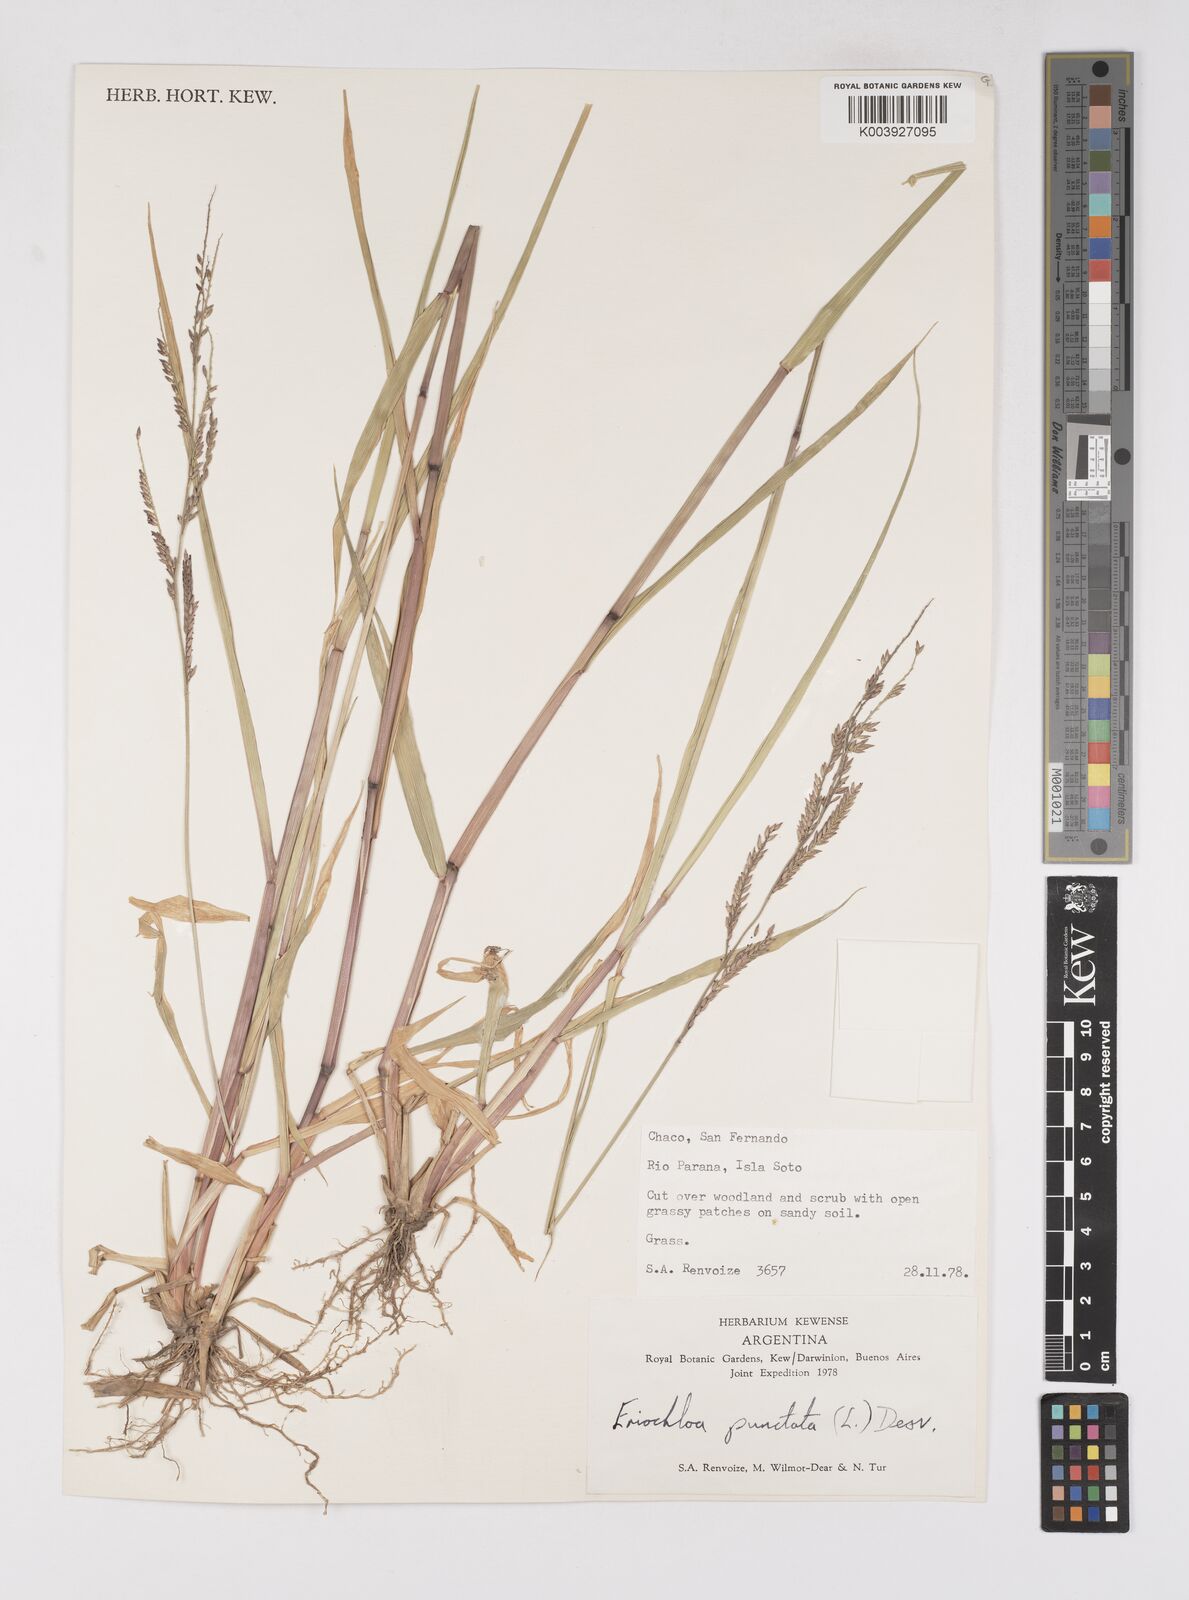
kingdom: Plantae
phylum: Tracheophyta
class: Liliopsida
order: Poales
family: Poaceae
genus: Eriochloa
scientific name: Eriochloa punctata
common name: Louisiana cupgrass
